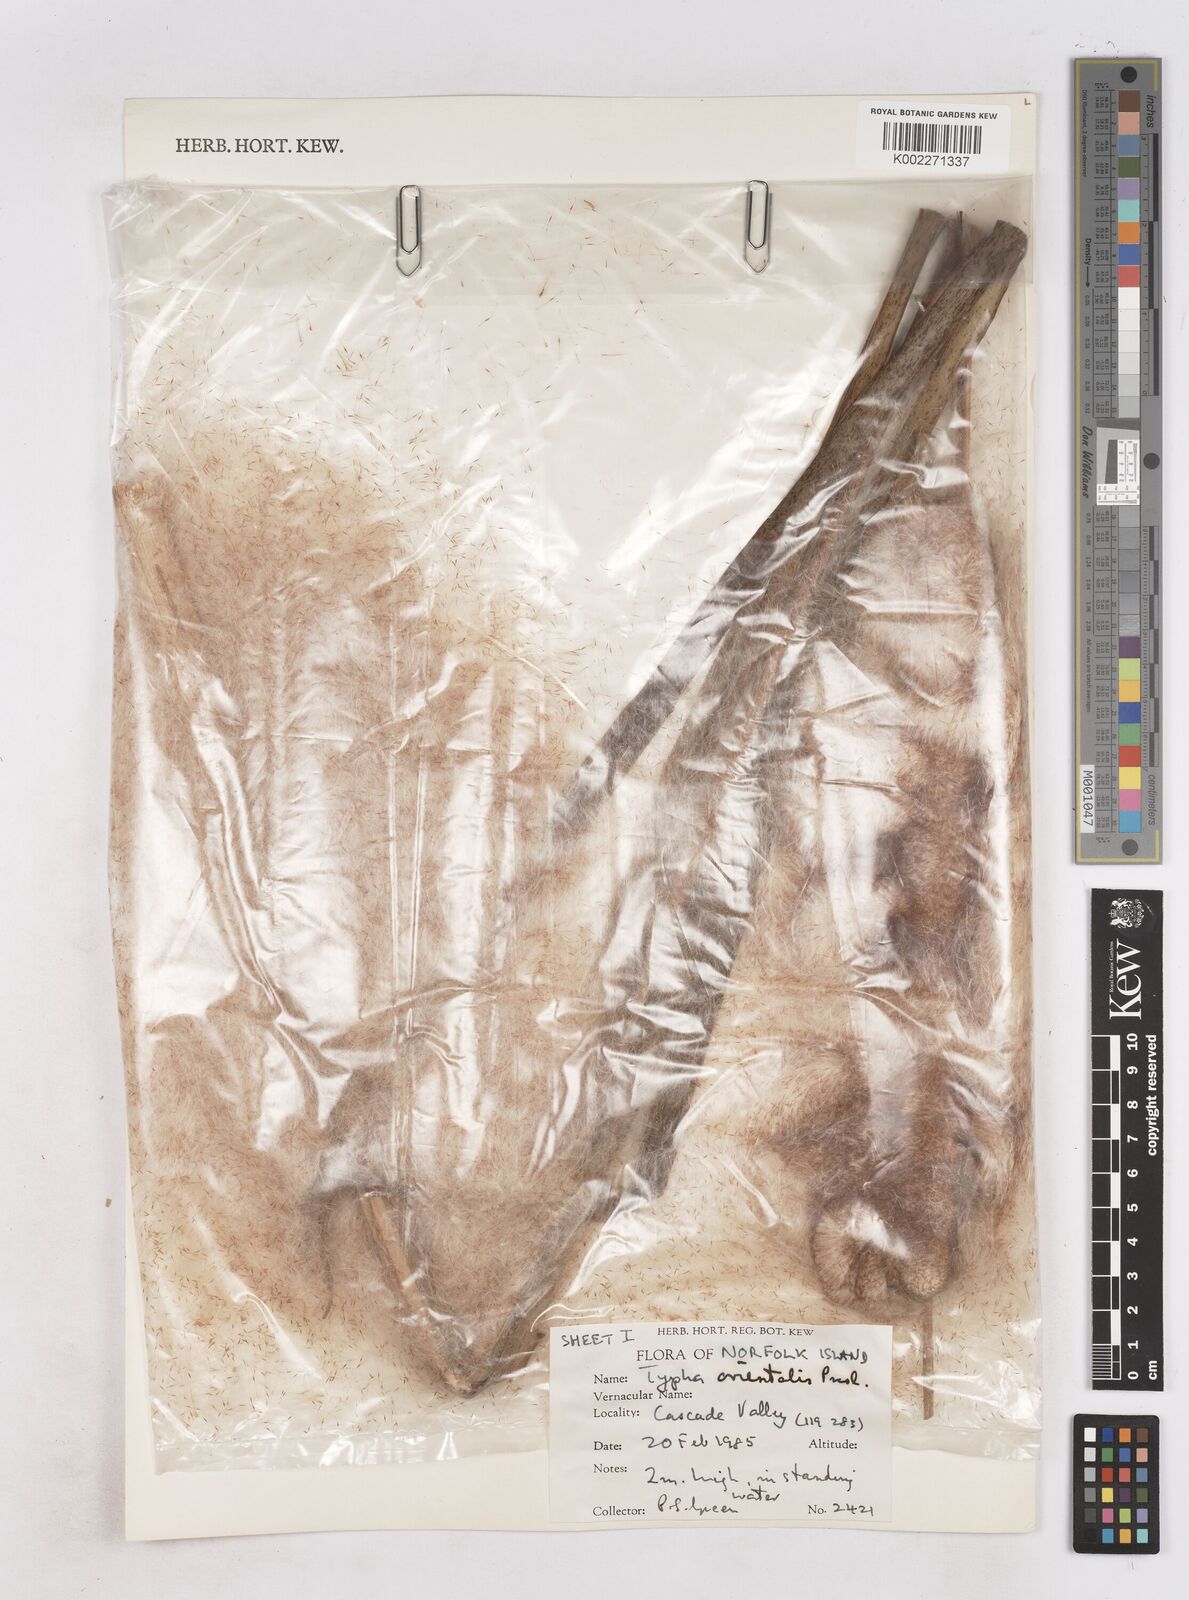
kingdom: Plantae
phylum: Tracheophyta
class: Liliopsida
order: Poales
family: Typhaceae
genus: Typha
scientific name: Typha orientalis
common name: Bullrush
